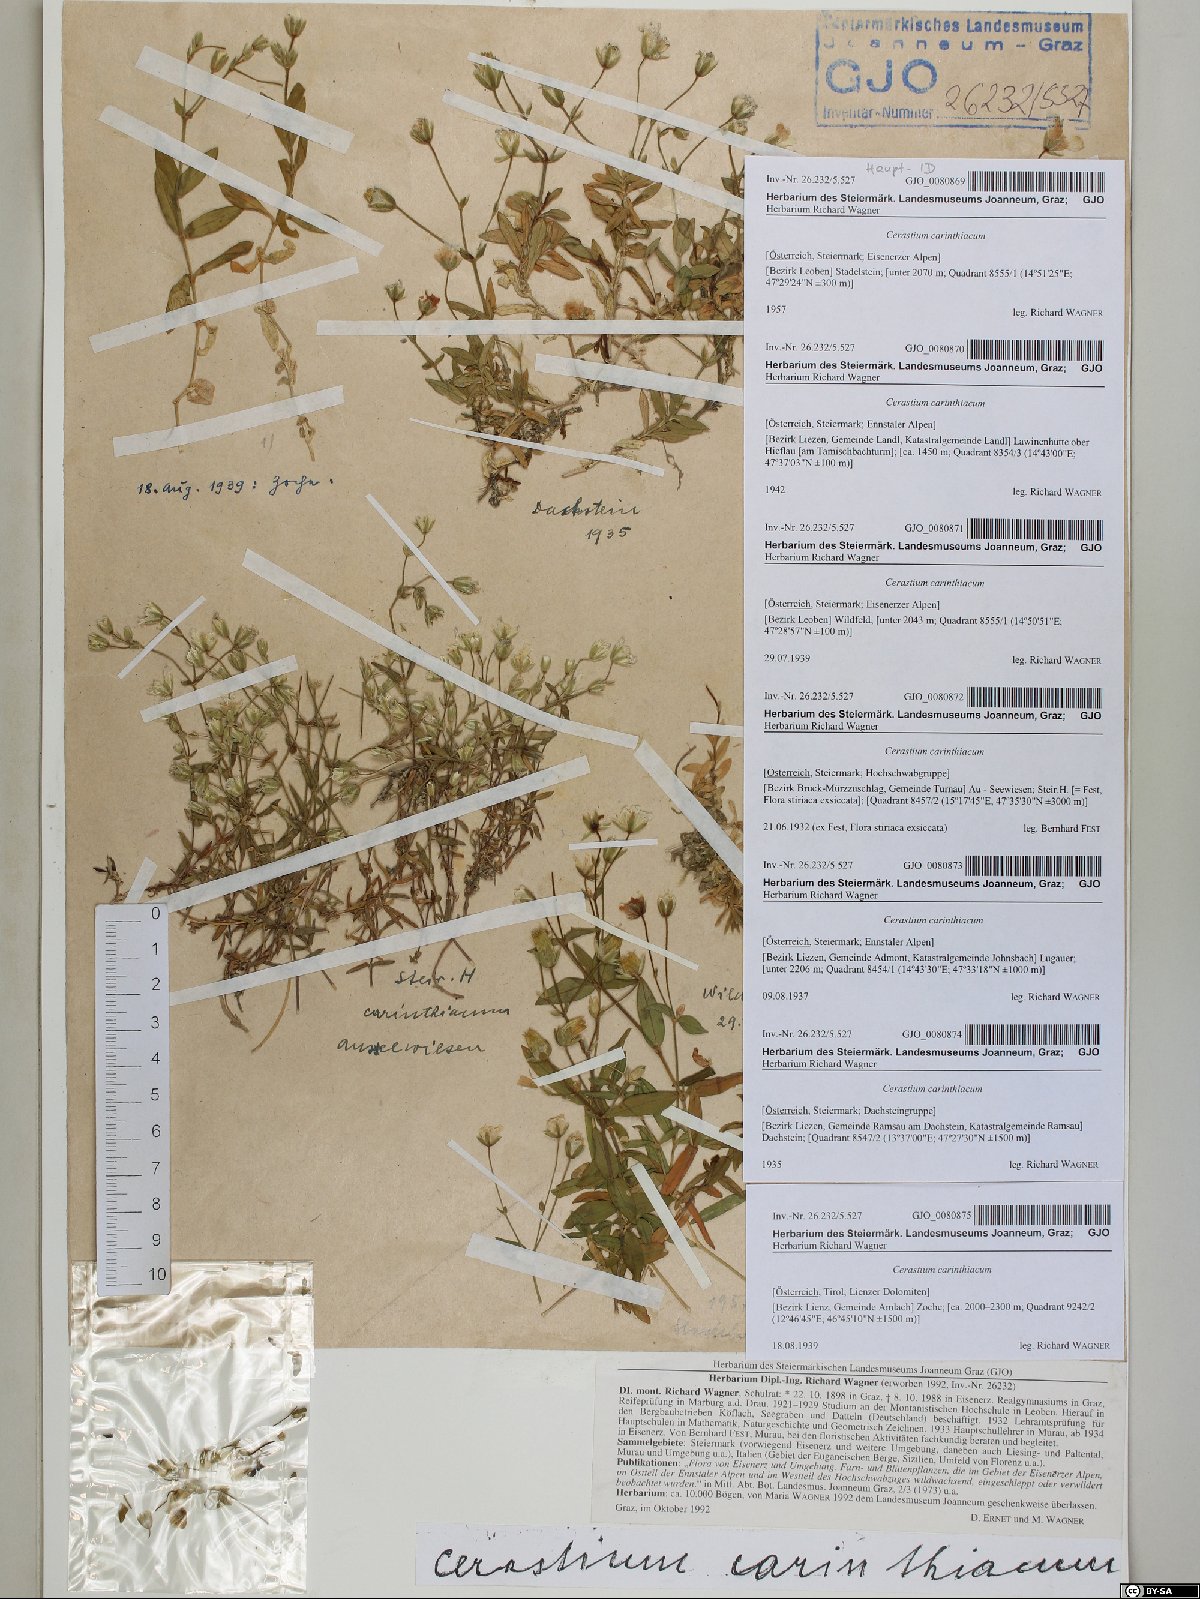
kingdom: Plantae
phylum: Tracheophyta
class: Magnoliopsida
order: Caryophyllales
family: Caryophyllaceae
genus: Cerastium
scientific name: Cerastium carinthiacum
